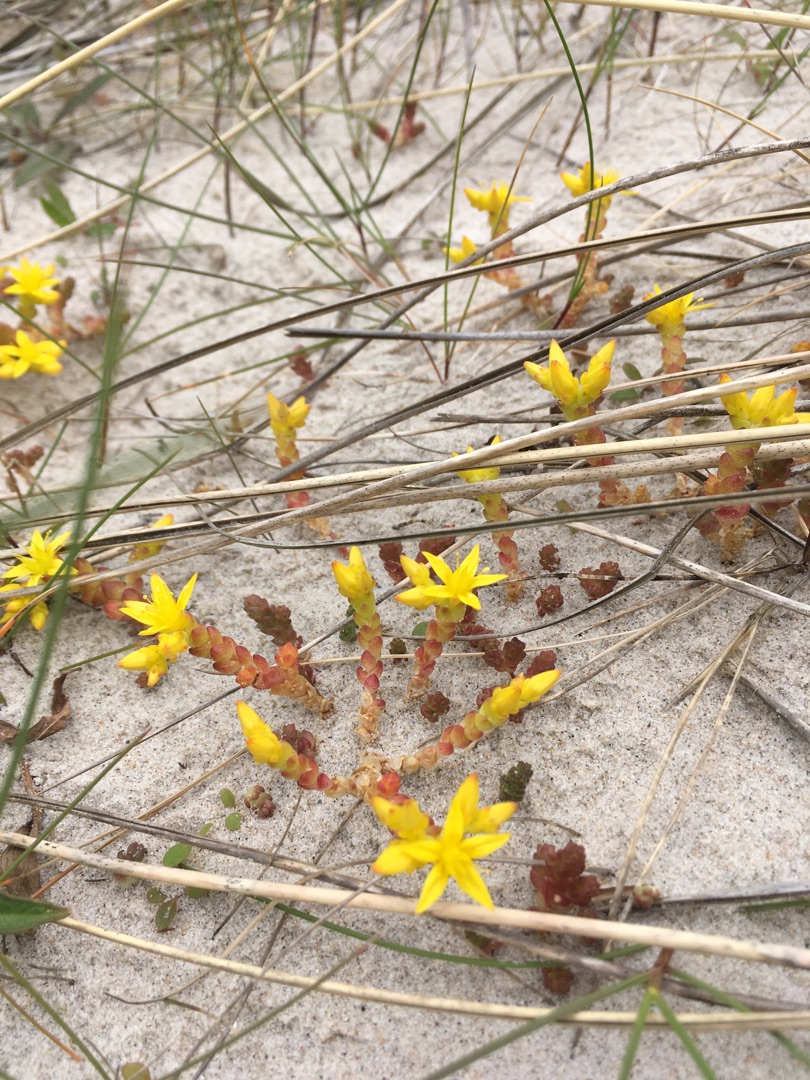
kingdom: Plantae
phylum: Tracheophyta
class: Magnoliopsida
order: Saxifragales
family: Crassulaceae
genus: Sedum
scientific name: Sedum acre
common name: Bidende stenurt
